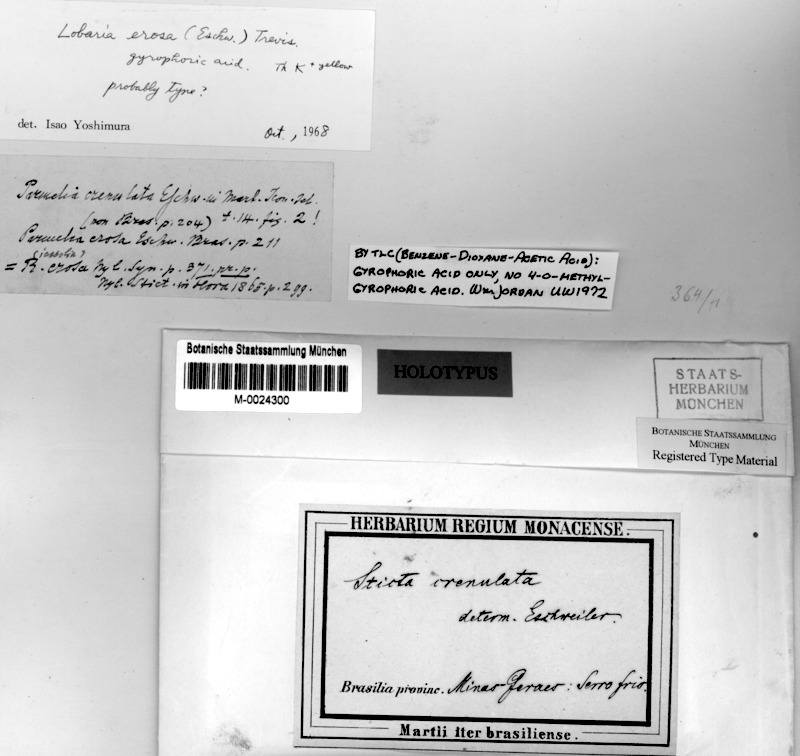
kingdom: Fungi
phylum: Ascomycota
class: Lecanoromycetes
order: Peltigerales
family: Peltigeraceae
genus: Emmanuelia
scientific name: Emmanuelia erosa
